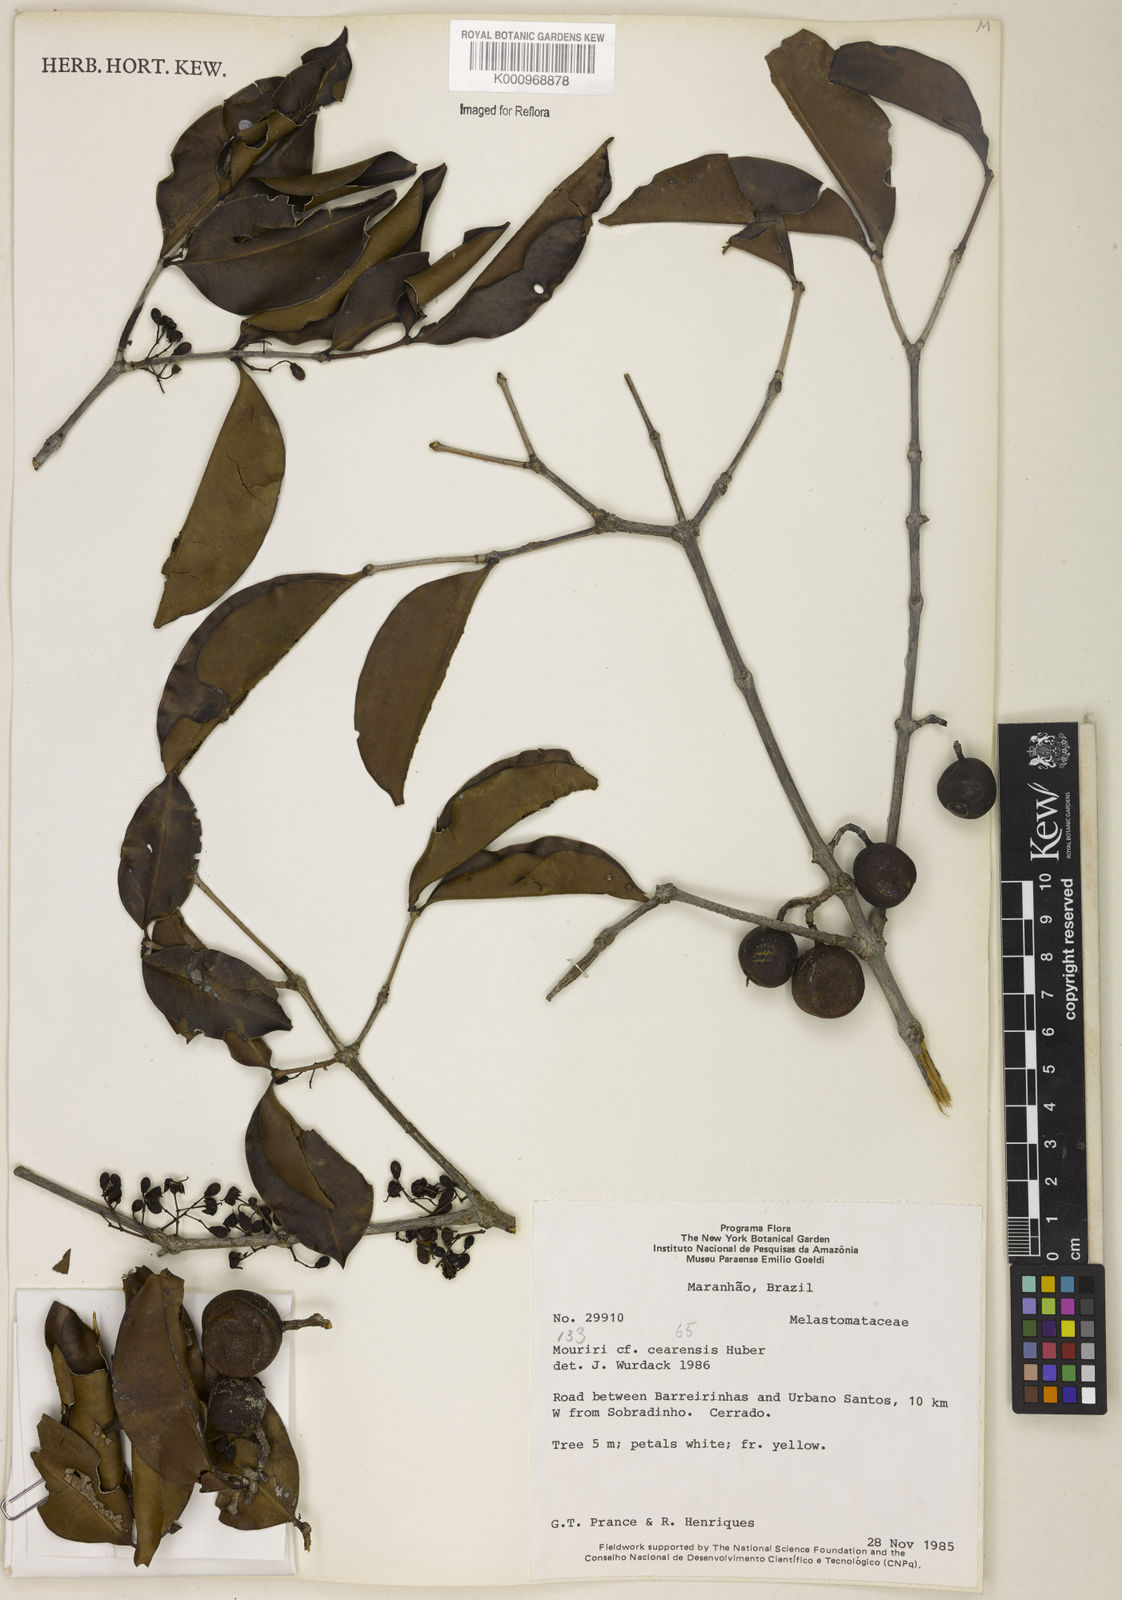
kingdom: Plantae
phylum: Tracheophyta
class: Magnoliopsida
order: Myrtales
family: Melastomataceae
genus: Mouriri
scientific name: Mouriri cearensis
